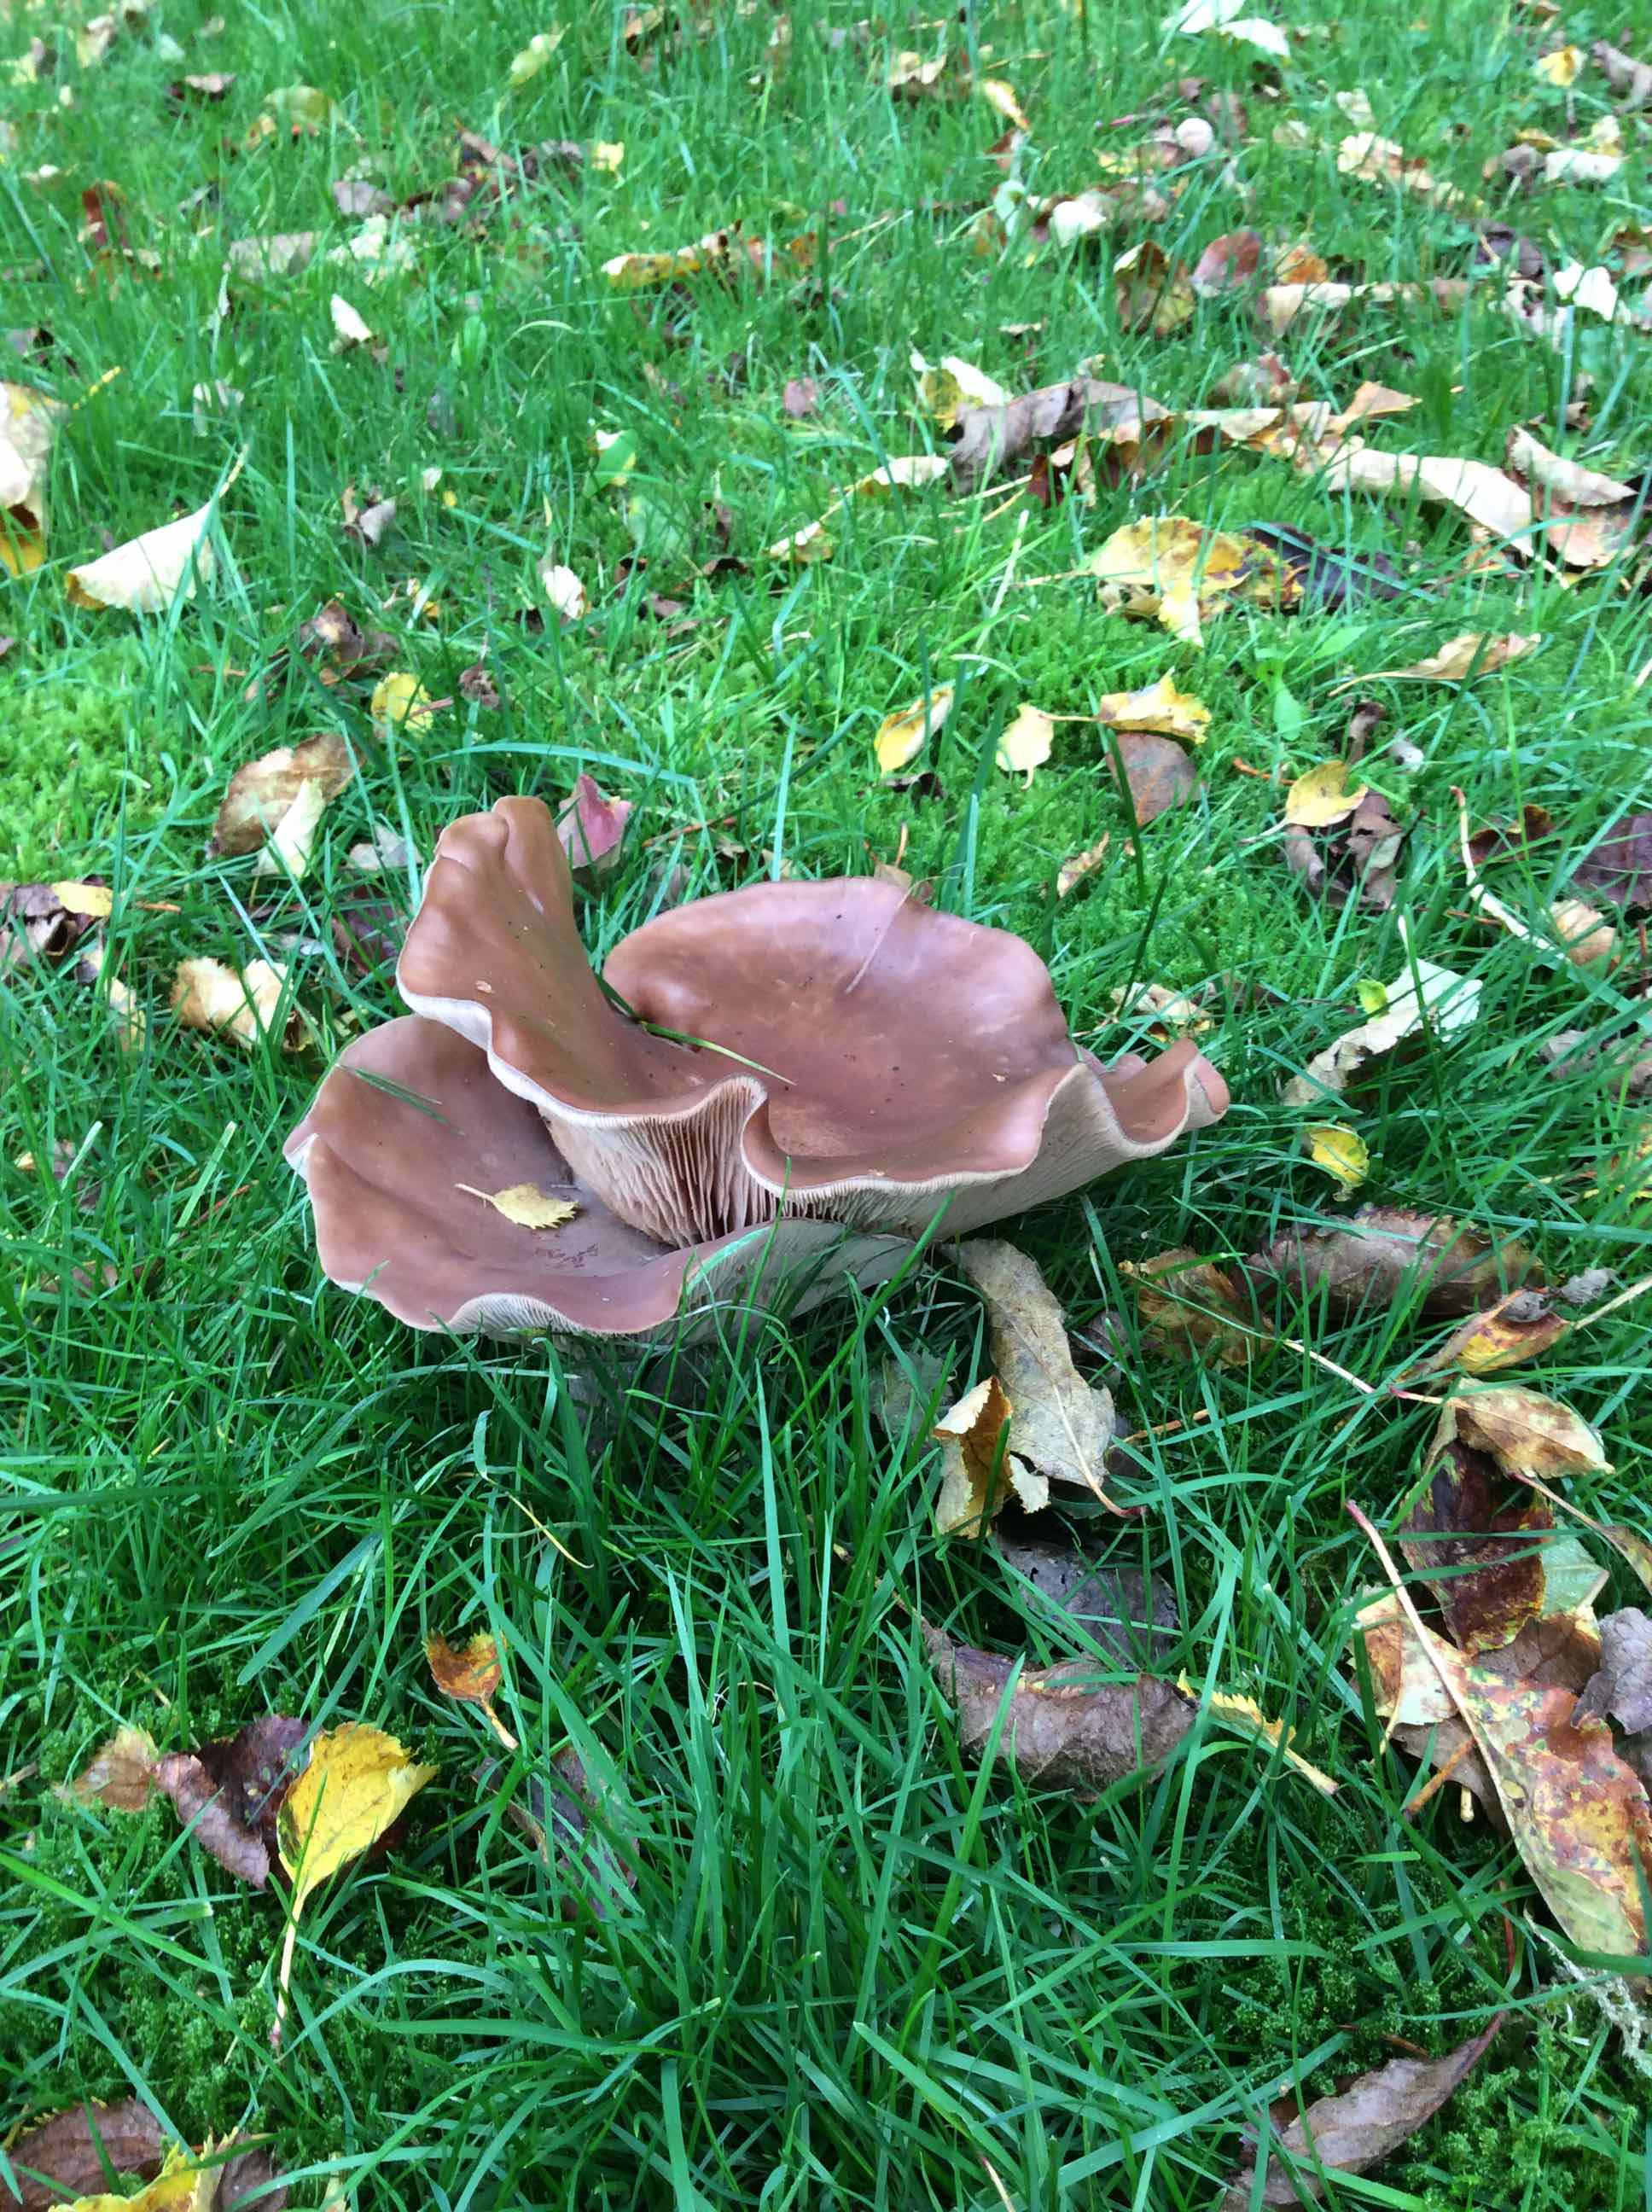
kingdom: Fungi
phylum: Basidiomycota
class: Agaricomycetes
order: Agaricales
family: Tricholomataceae
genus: Lepista
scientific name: Lepista nuda
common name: violet hekseringshat
